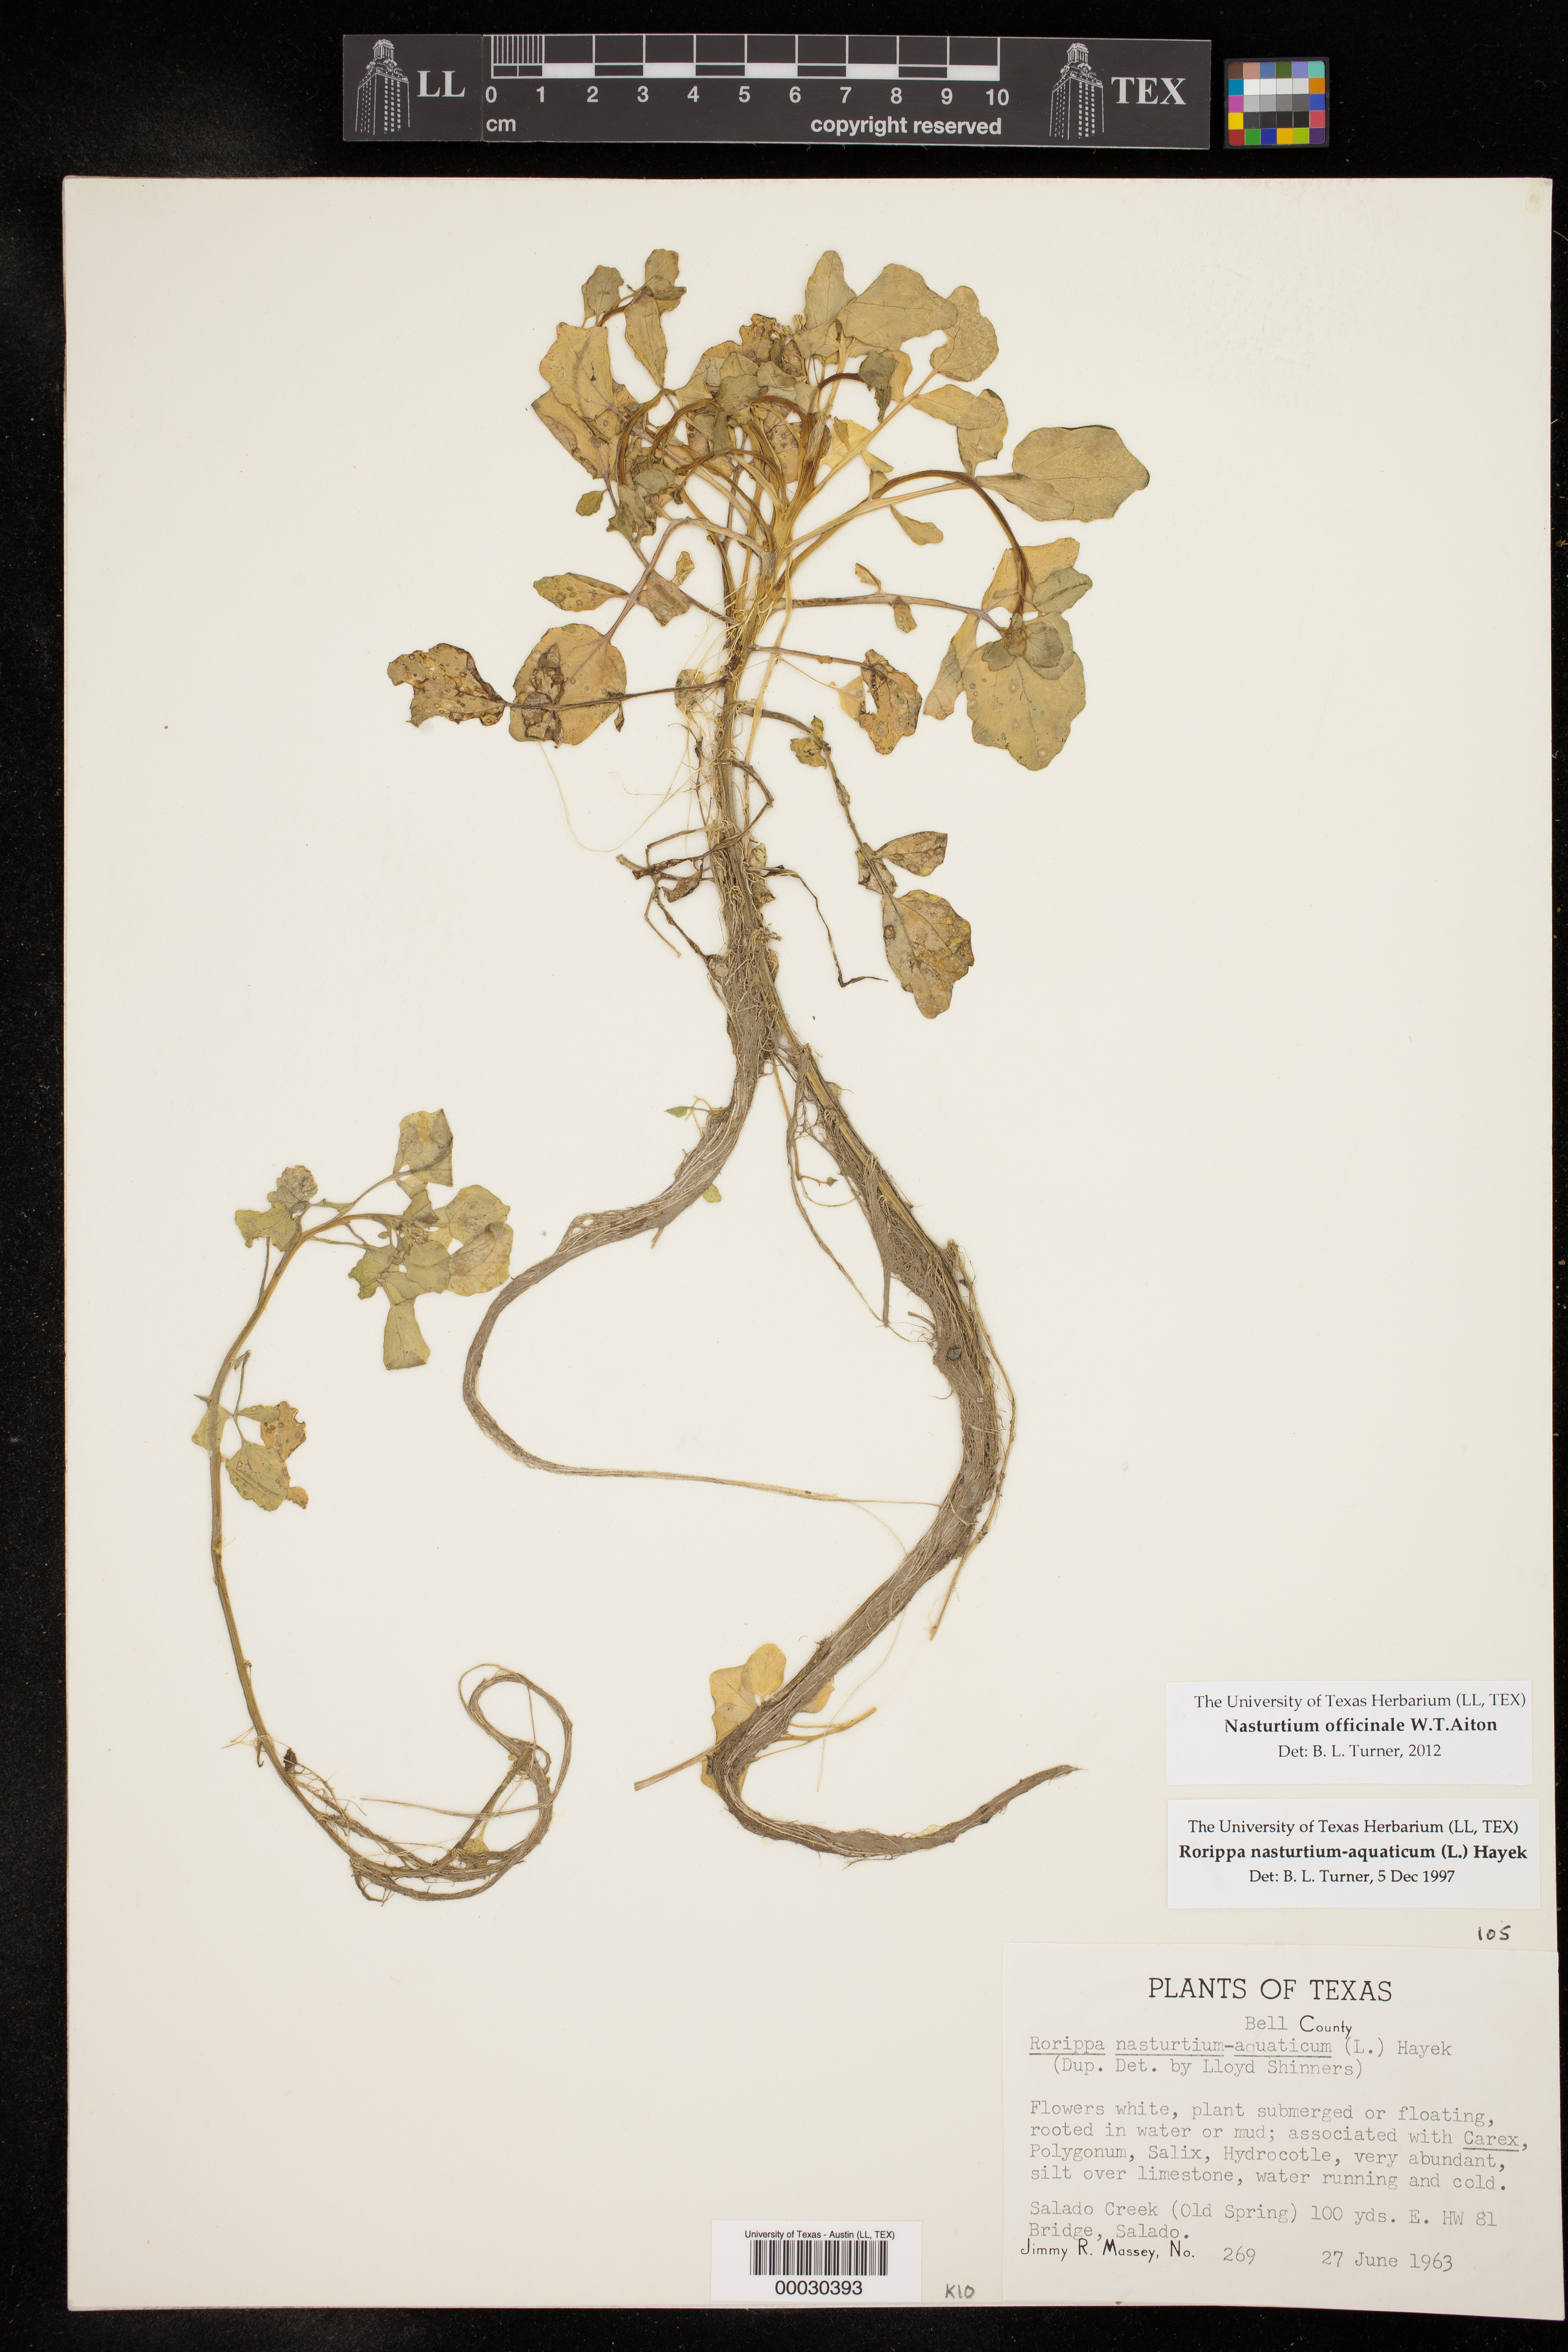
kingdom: Plantae
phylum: Tracheophyta
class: Magnoliopsida
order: Brassicales
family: Brassicaceae
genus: Nasturtium
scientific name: Nasturtium officinale
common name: Watercress
